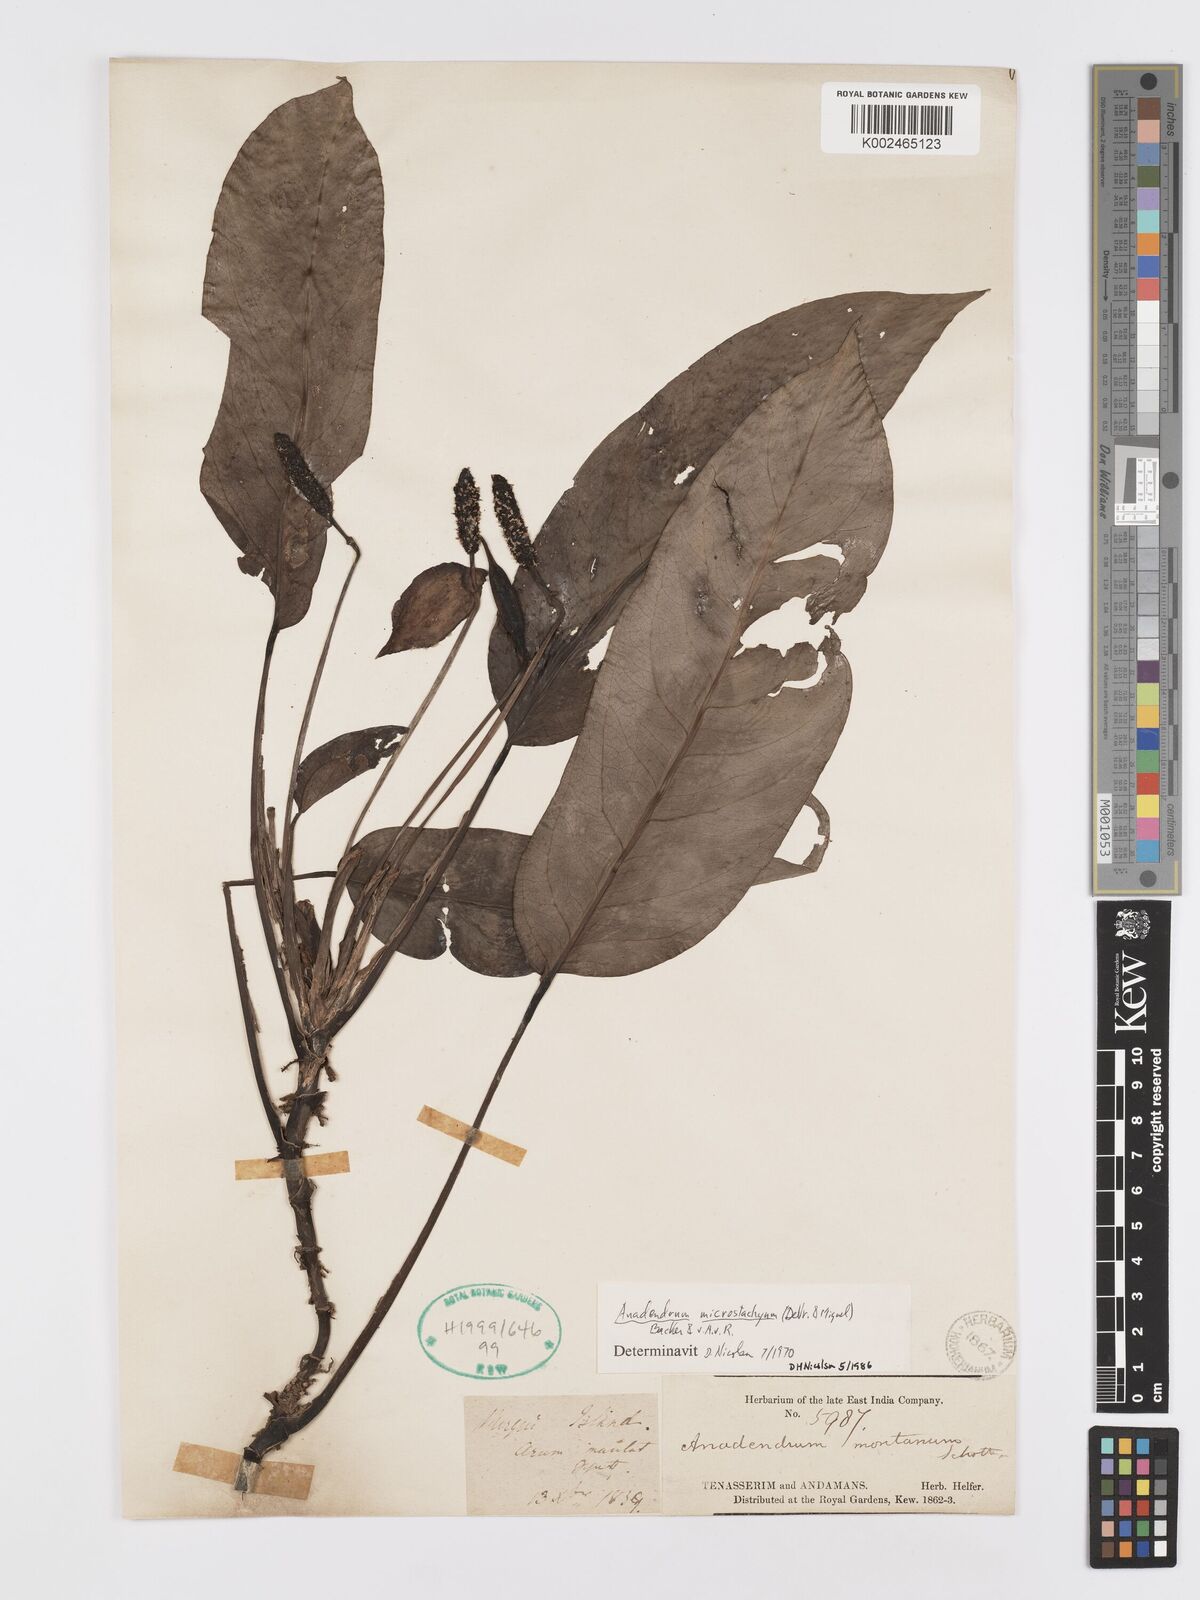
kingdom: Plantae
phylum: Tracheophyta
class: Liliopsida
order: Alismatales
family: Araceae
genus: Anadendrum
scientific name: Anadendrum microstachyum
